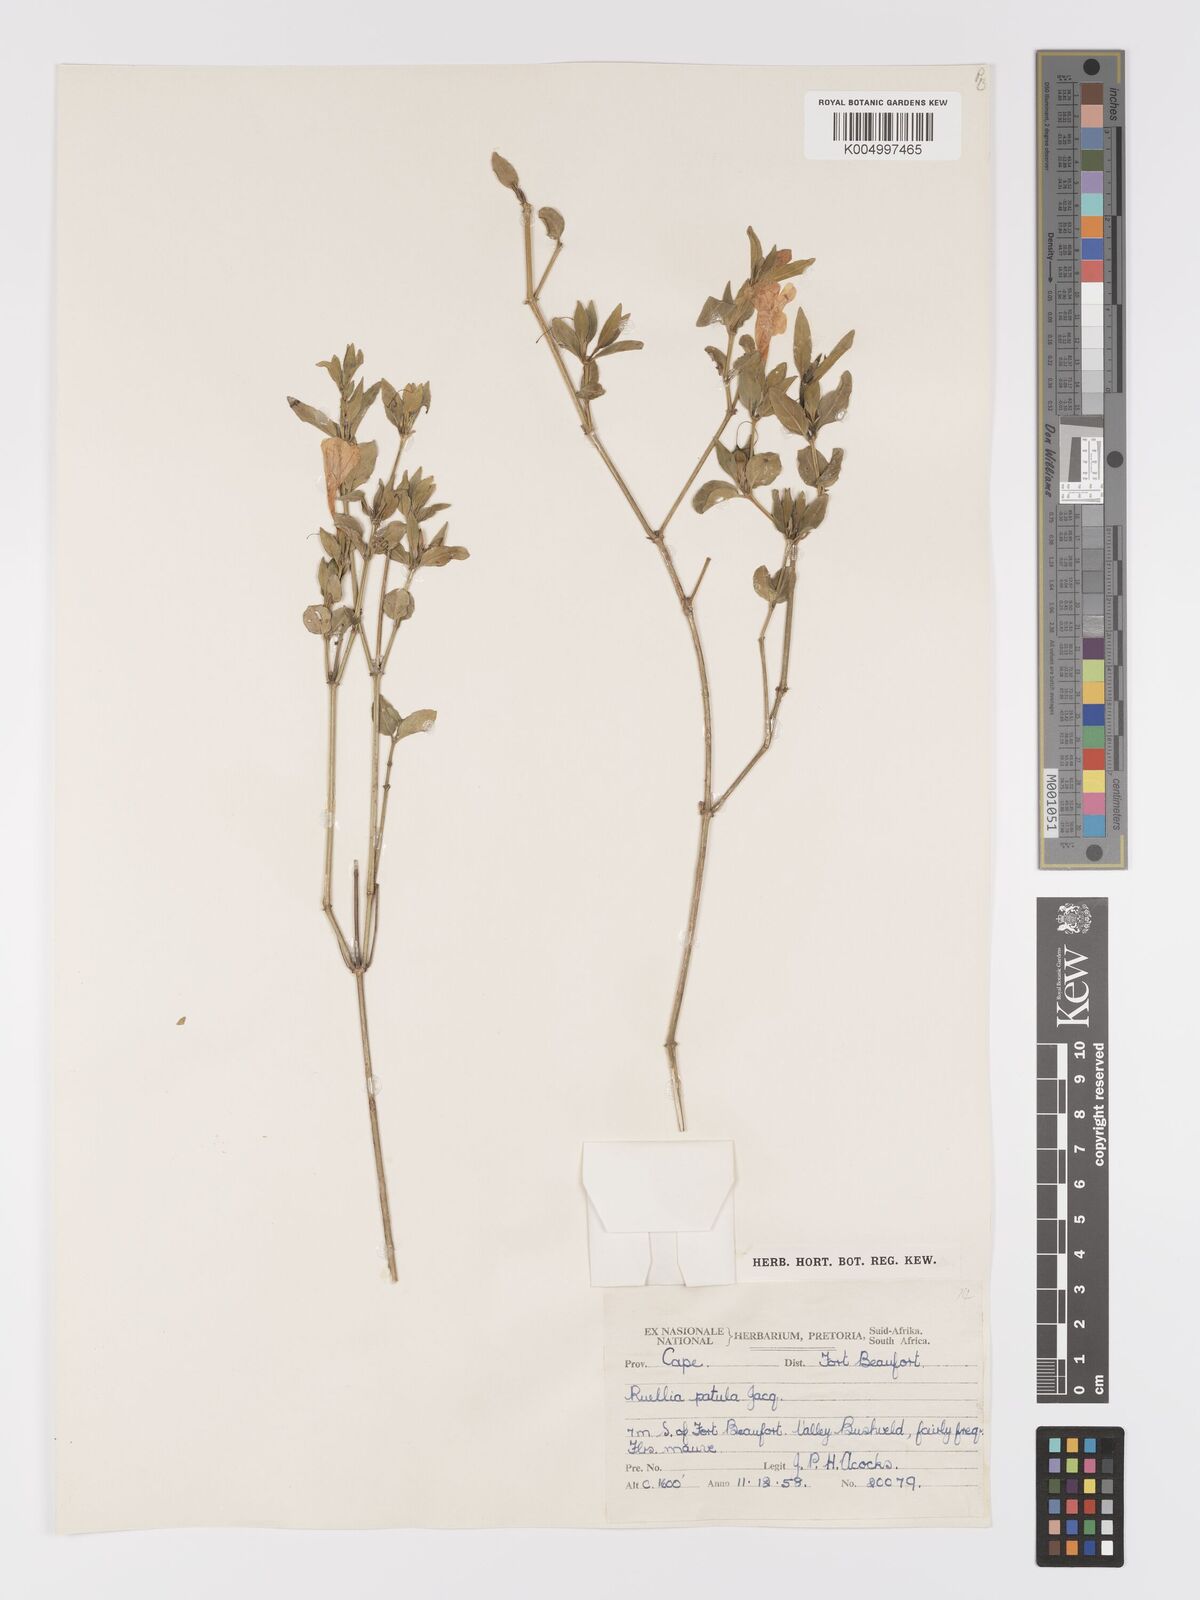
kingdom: Plantae
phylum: Tracheophyta
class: Magnoliopsida
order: Lamiales
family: Acanthaceae
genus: Ruellia
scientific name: Ruellia cordata
